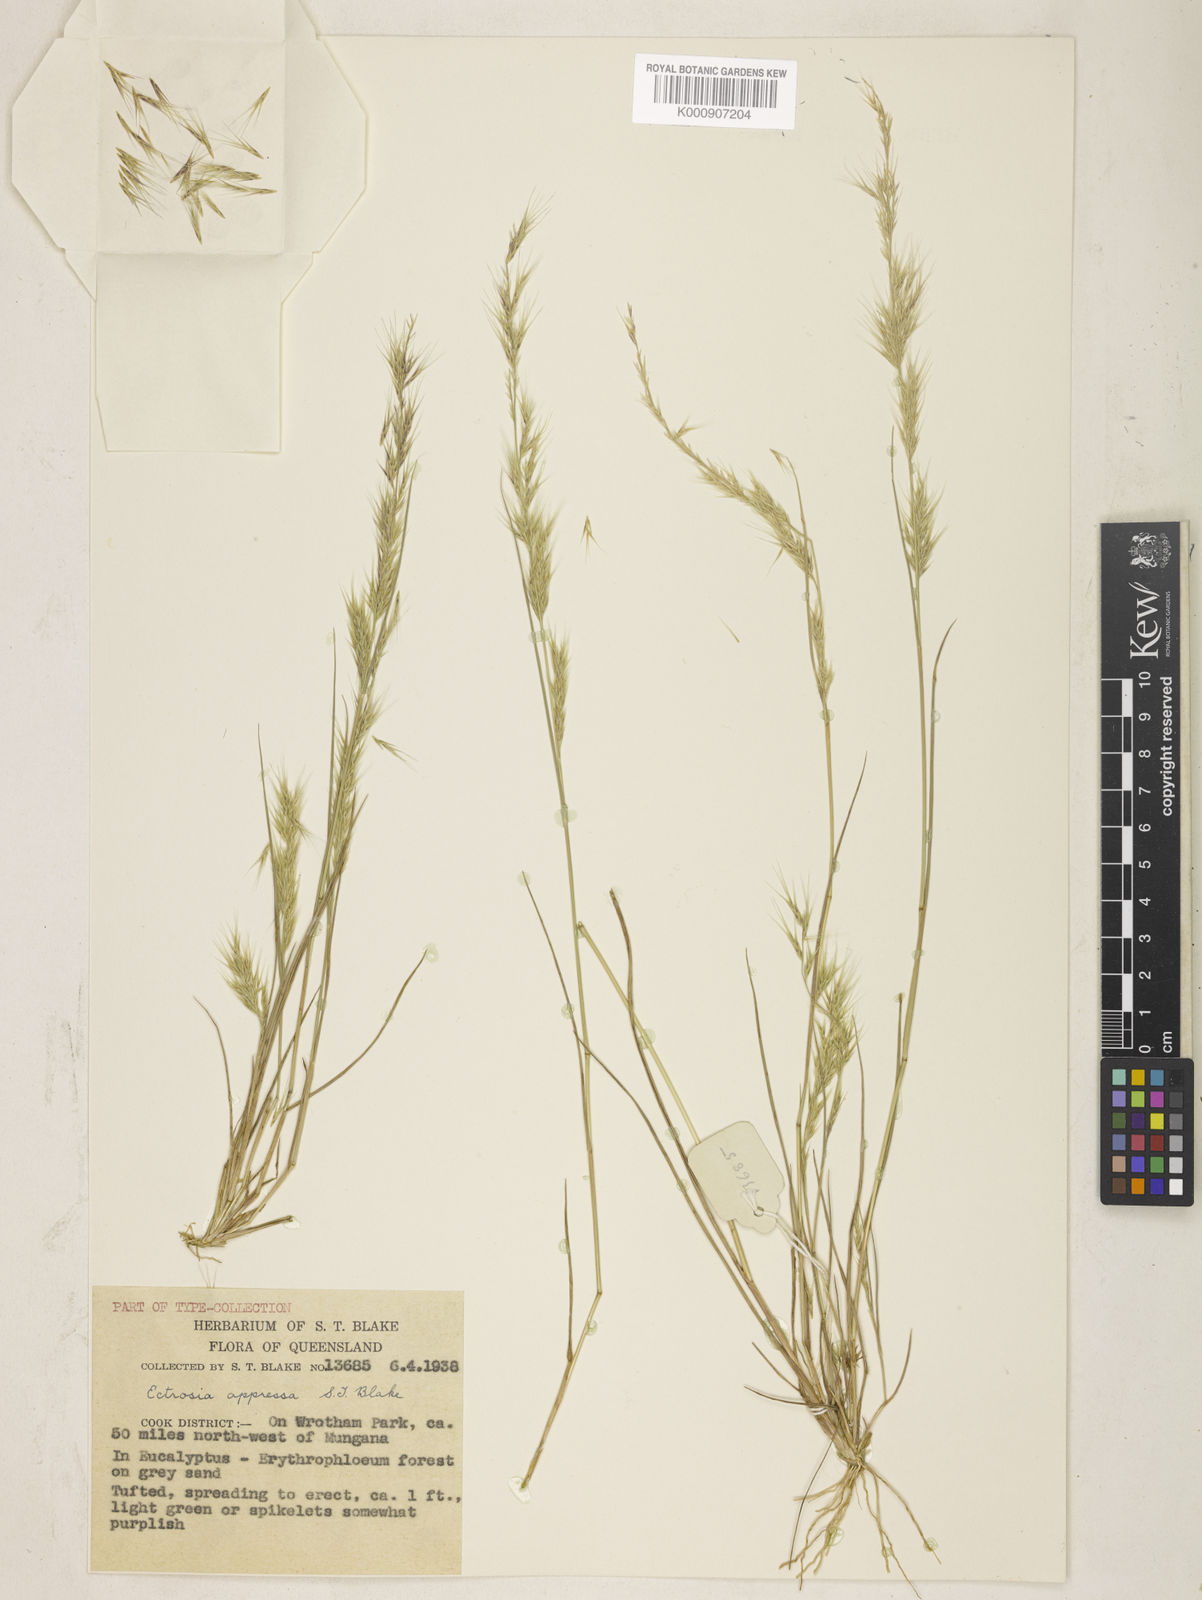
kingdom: Plantae
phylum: Tracheophyta
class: Liliopsida
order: Poales
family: Poaceae
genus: Eragrostis
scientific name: Eragrostis appressa
